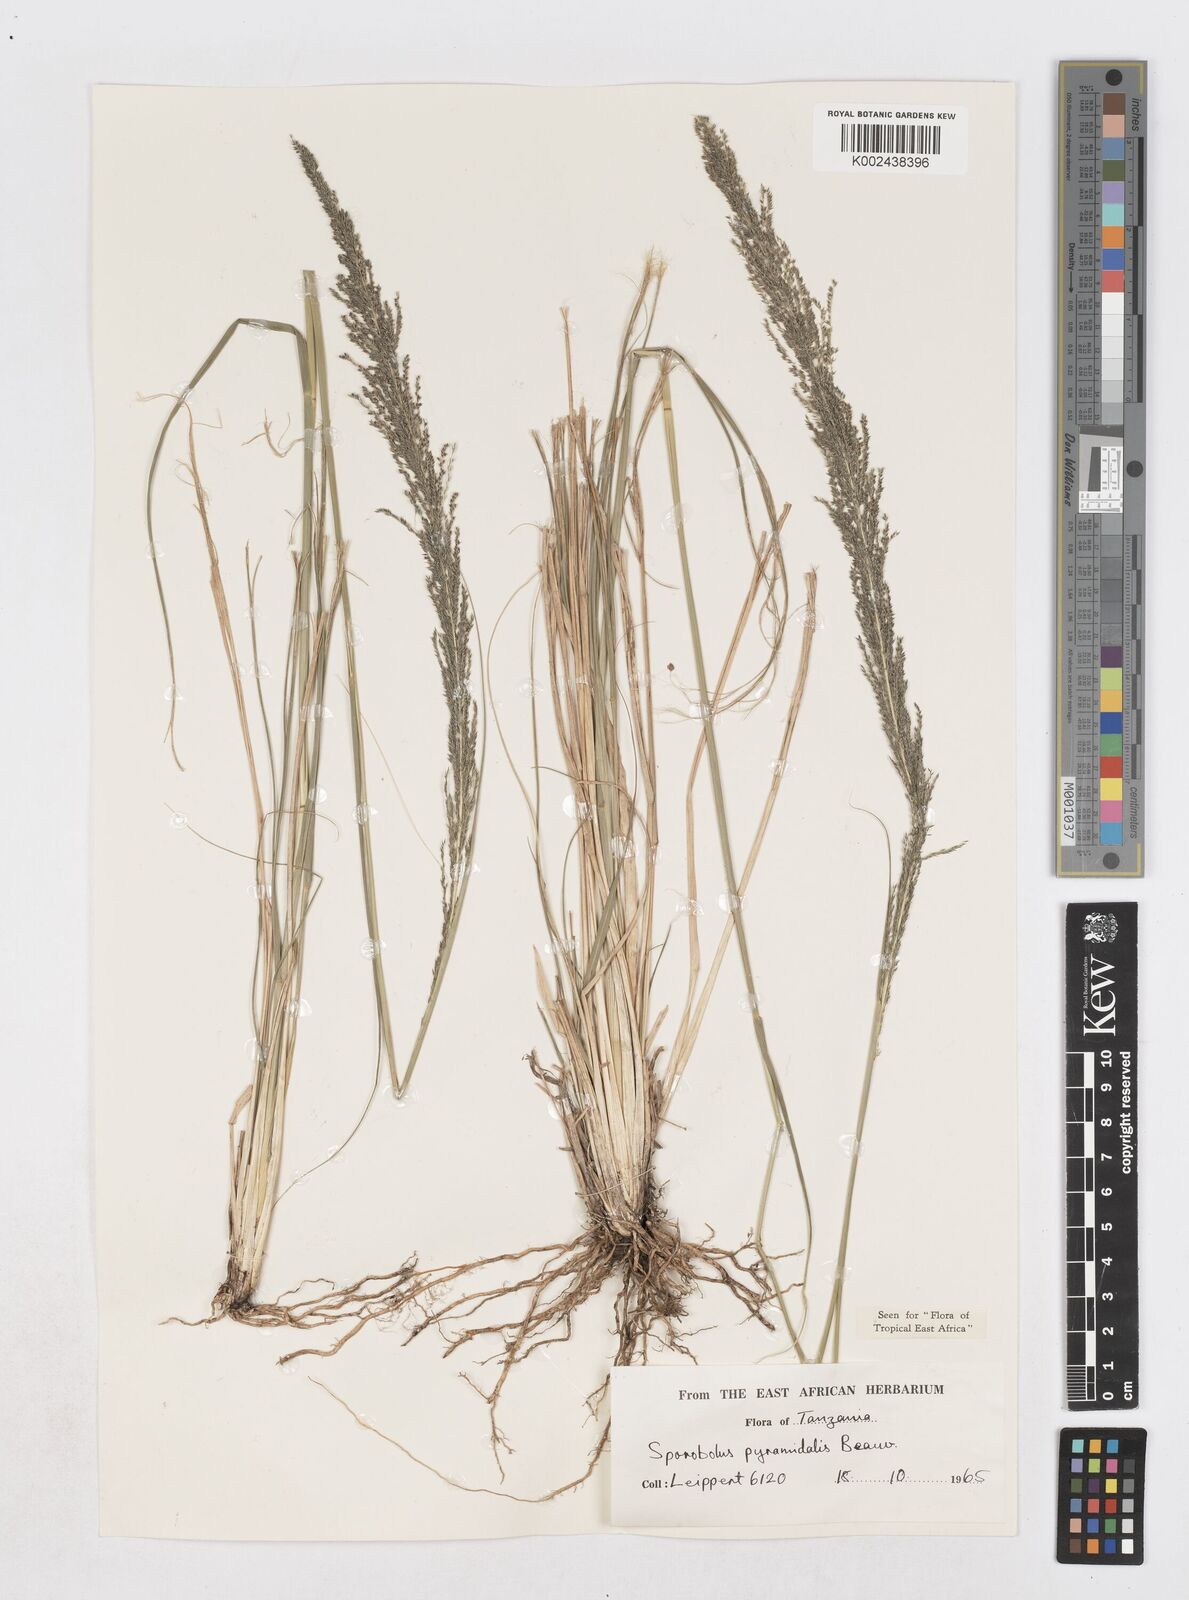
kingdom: Plantae
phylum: Tracheophyta
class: Liliopsida
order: Poales
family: Poaceae
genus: Sporobolus
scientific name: Sporobolus pyramidalis
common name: West indian dropseed
